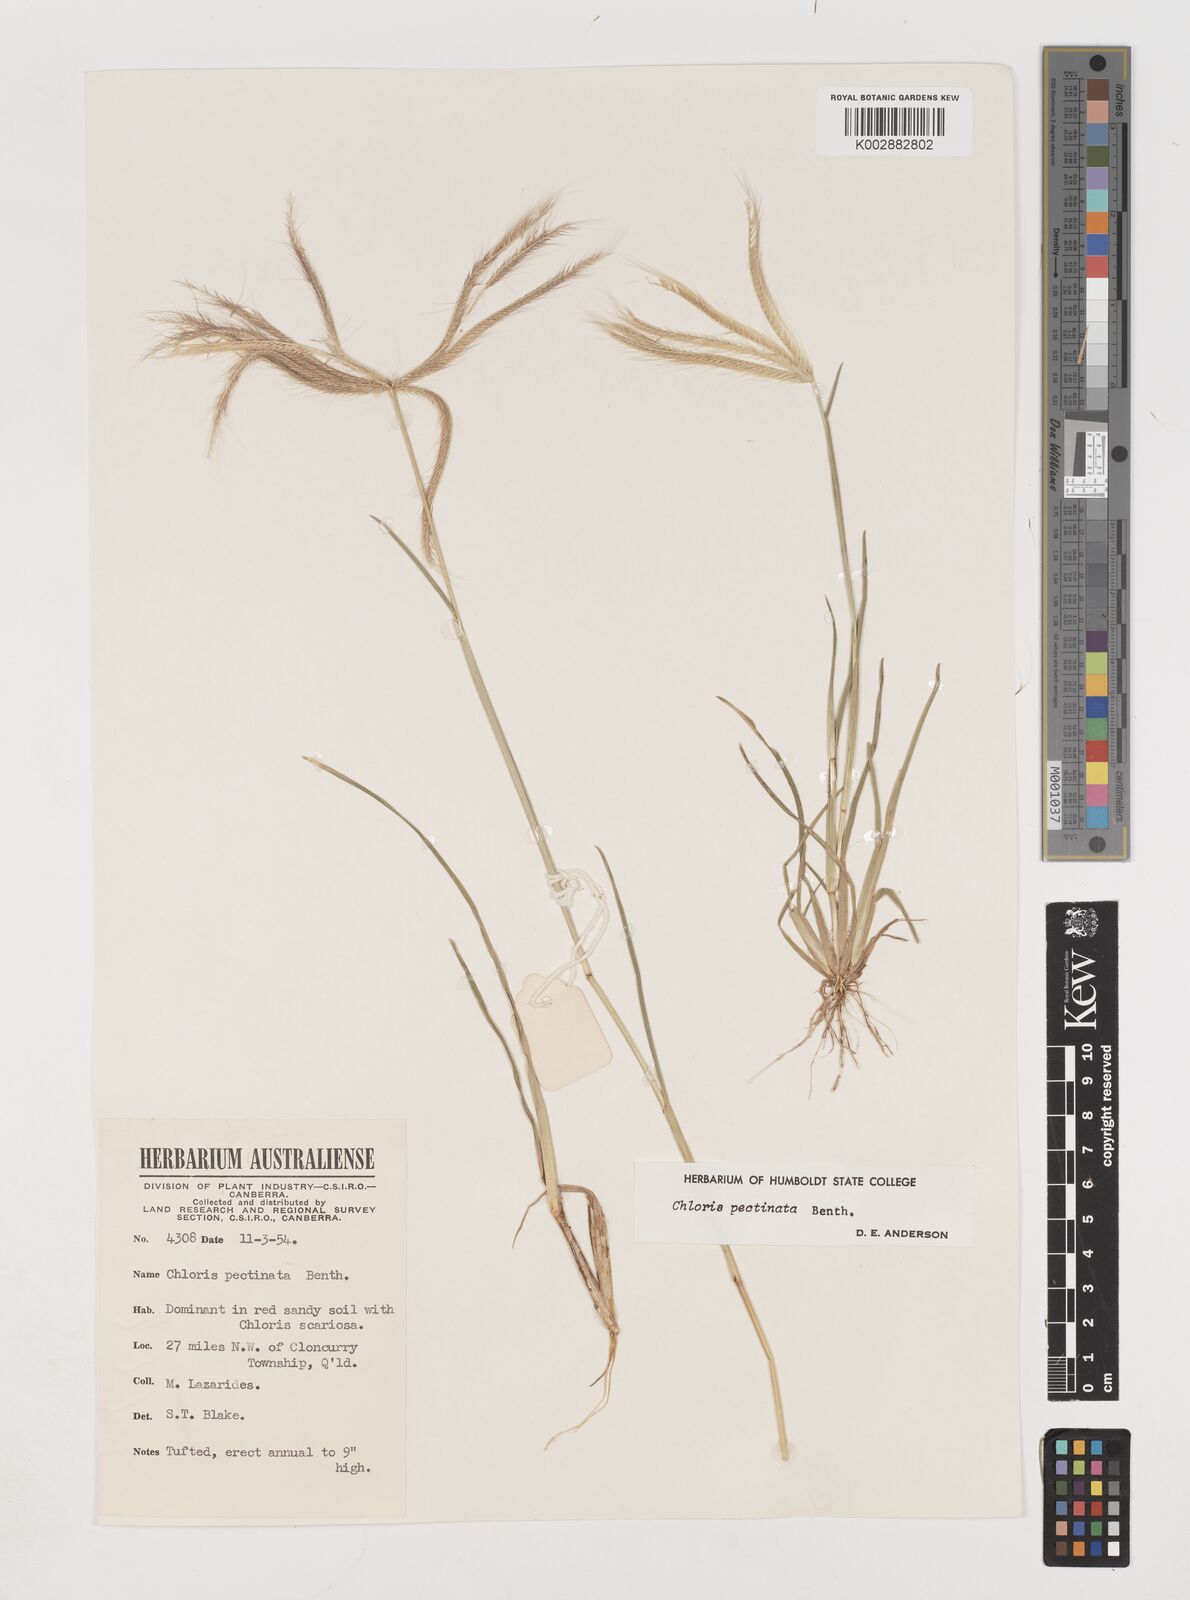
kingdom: Plantae
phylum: Tracheophyta
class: Liliopsida
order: Poales
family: Poaceae
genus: Chloris
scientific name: Chloris pectinata
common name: Comb windmill grass
